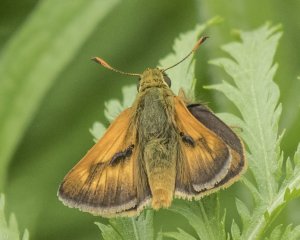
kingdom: Animalia
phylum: Arthropoda
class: Insecta
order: Lepidoptera
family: Hesperiidae
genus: Polites
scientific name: Polites
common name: Long Dash Skipper
